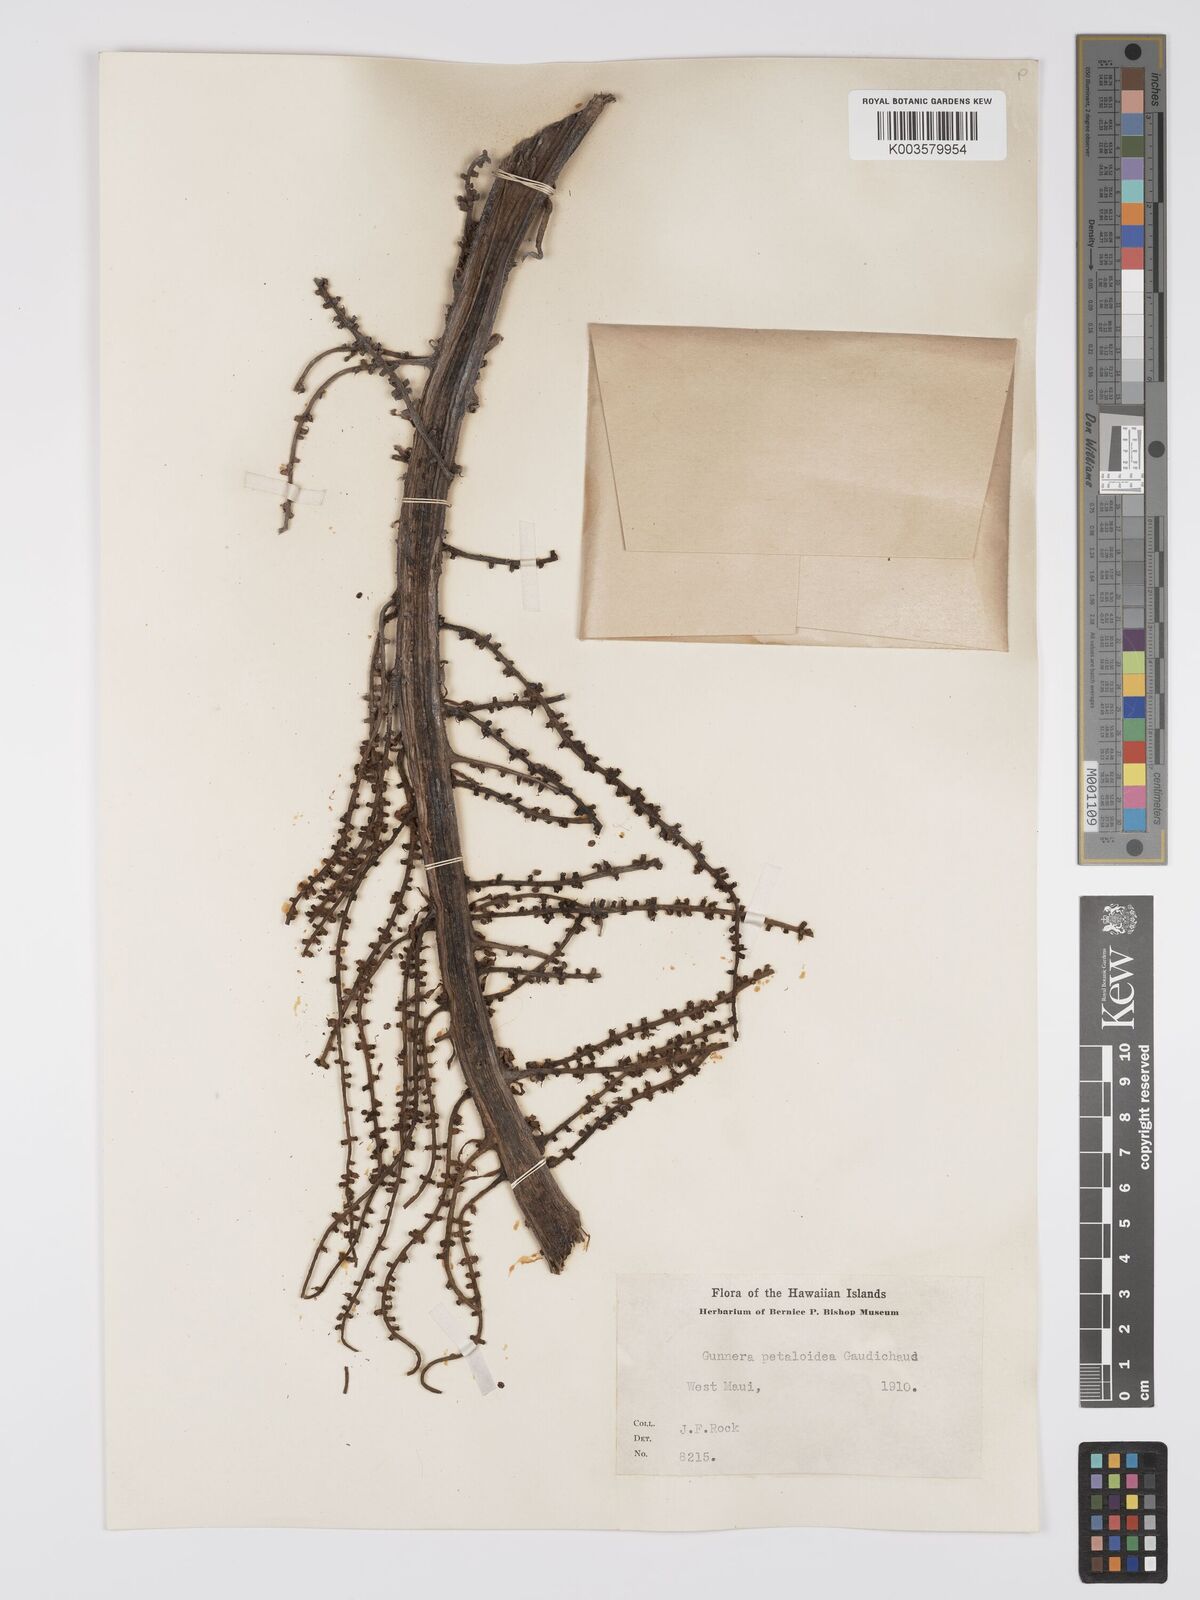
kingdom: Plantae
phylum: Tracheophyta
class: Magnoliopsida
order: Gunnerales
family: Gunneraceae
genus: Gunnera
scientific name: Gunnera petaloidea
